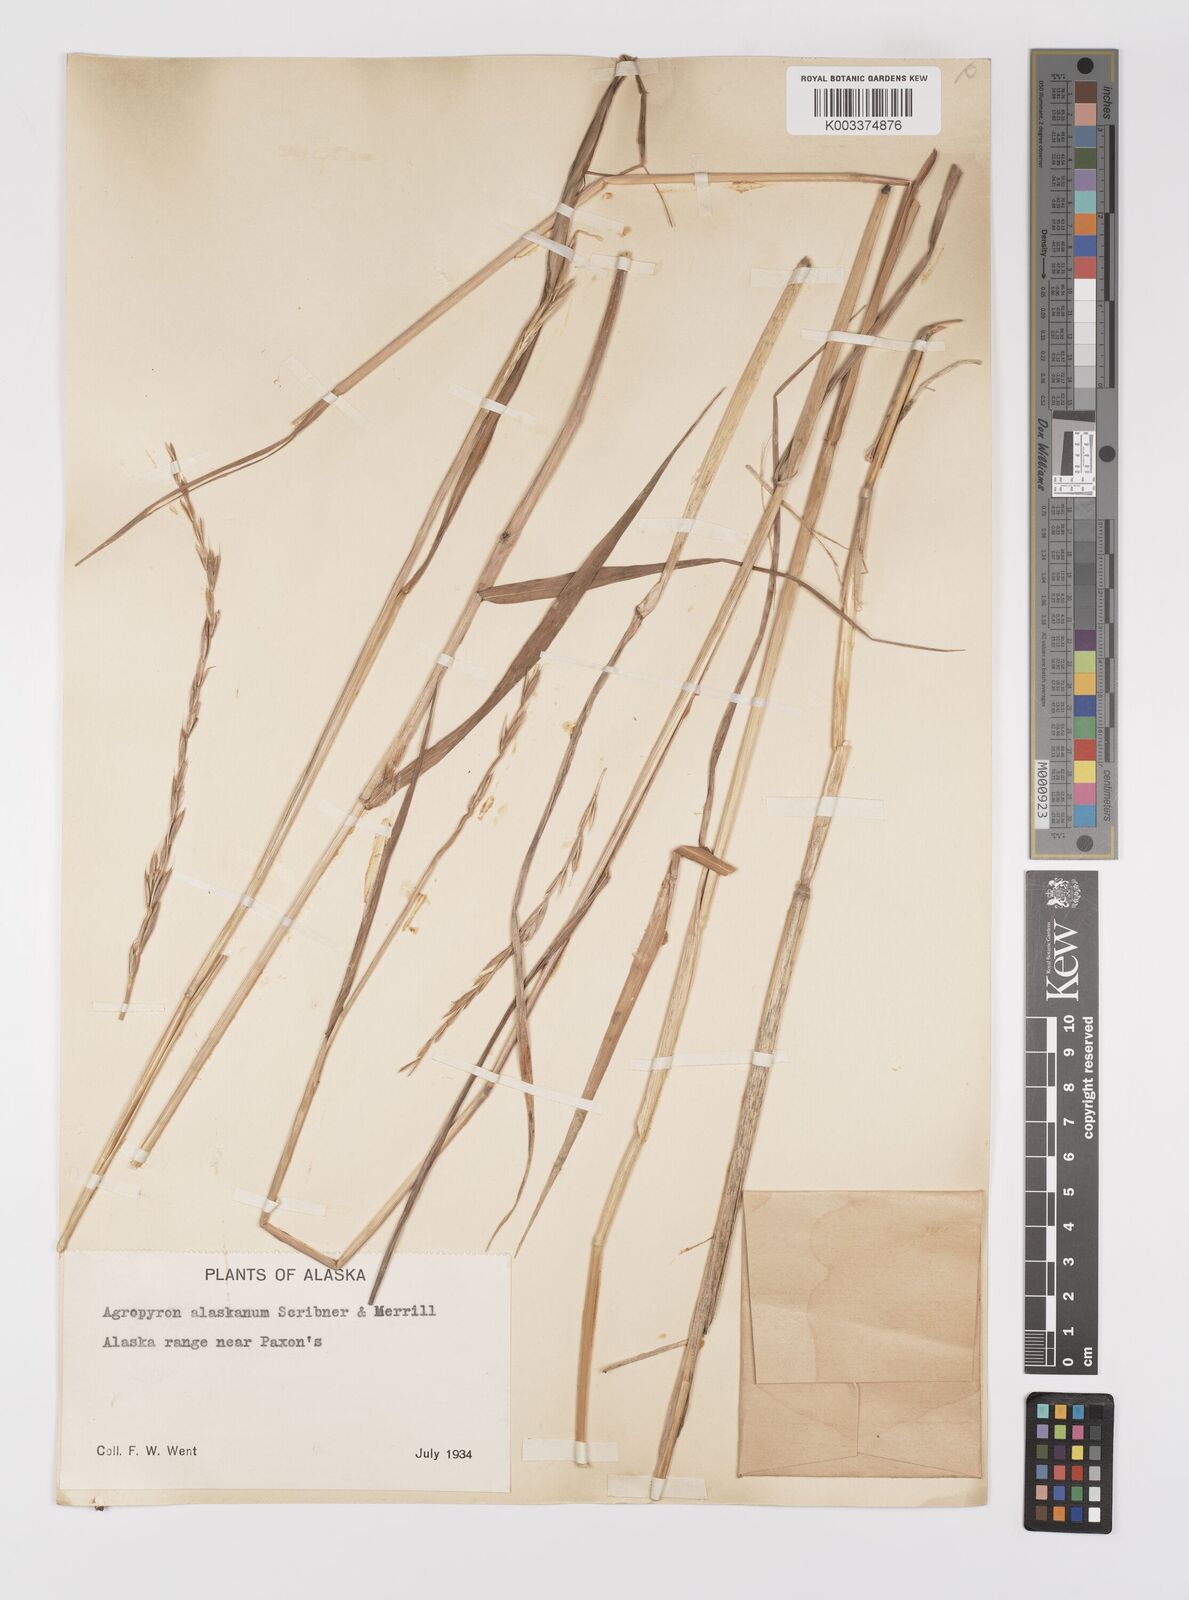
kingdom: Plantae
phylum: Tracheophyta
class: Liliopsida
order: Poales
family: Poaceae
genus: Elymus
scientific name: Elymus violaceus
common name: Arctic wheatgrass
